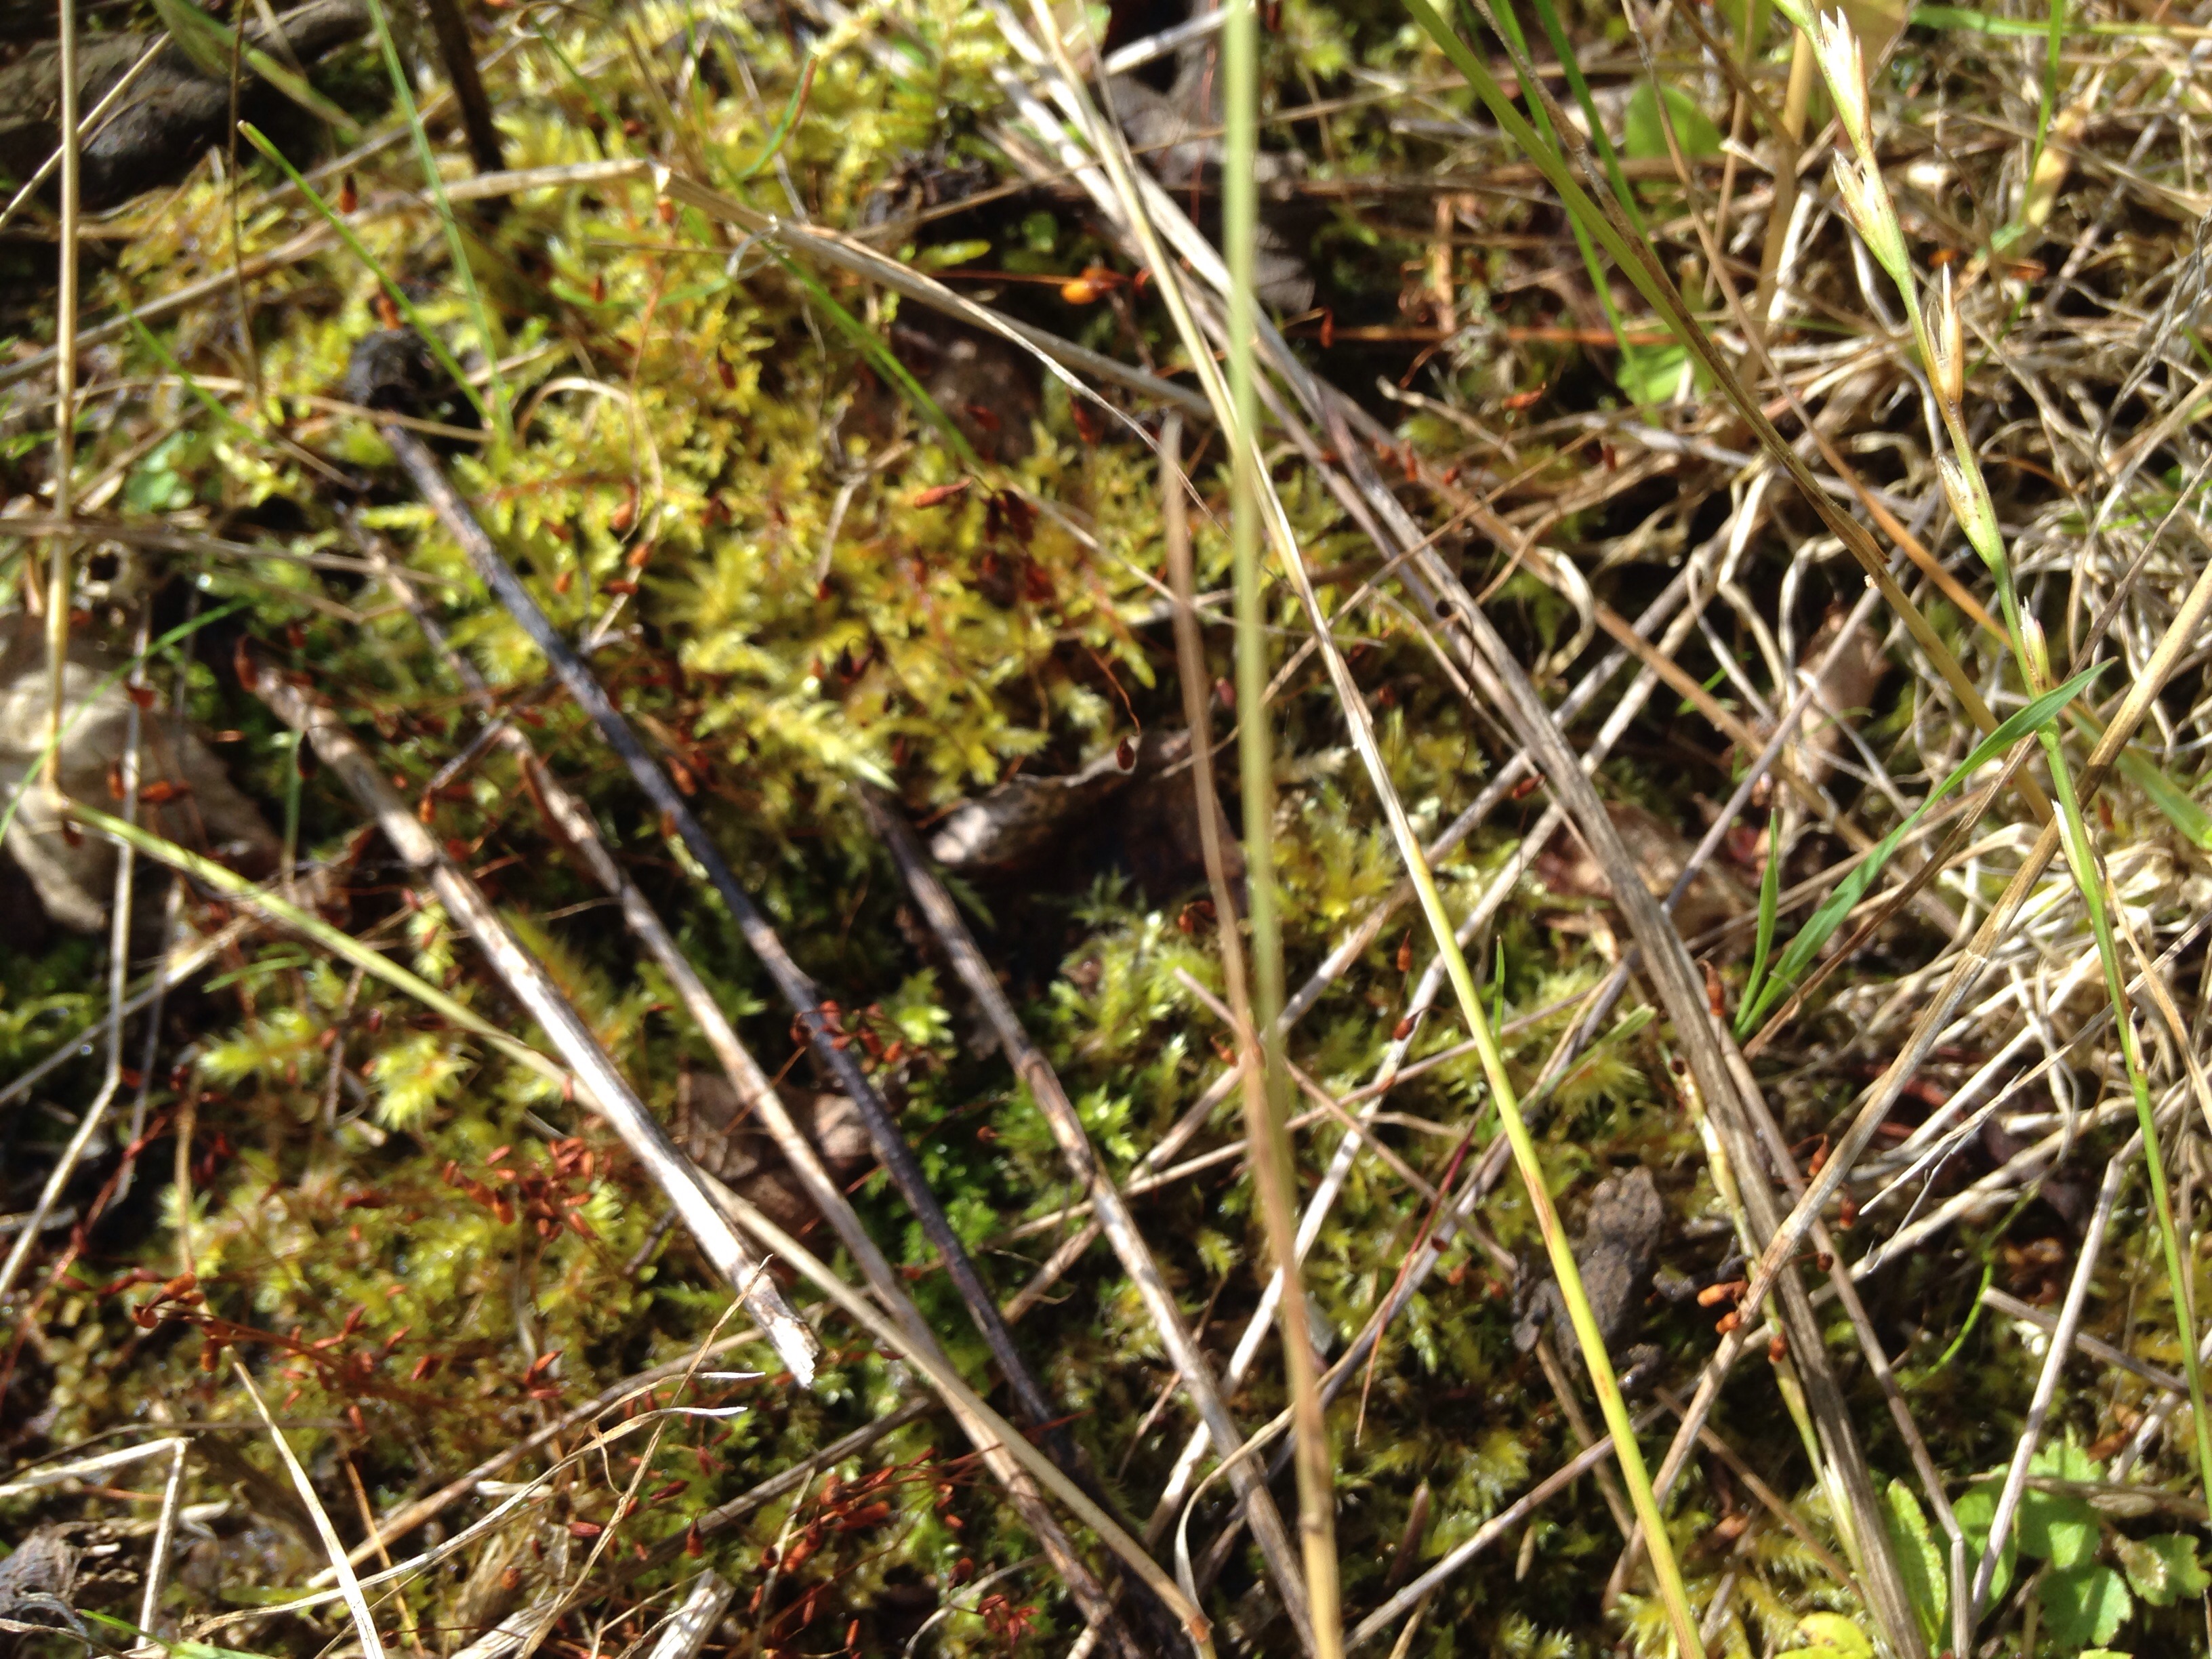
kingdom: Animalia
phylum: Chordata
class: Amphibia
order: Anura
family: Ranidae
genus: Rana
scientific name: Rana temporaria
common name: Common frog
